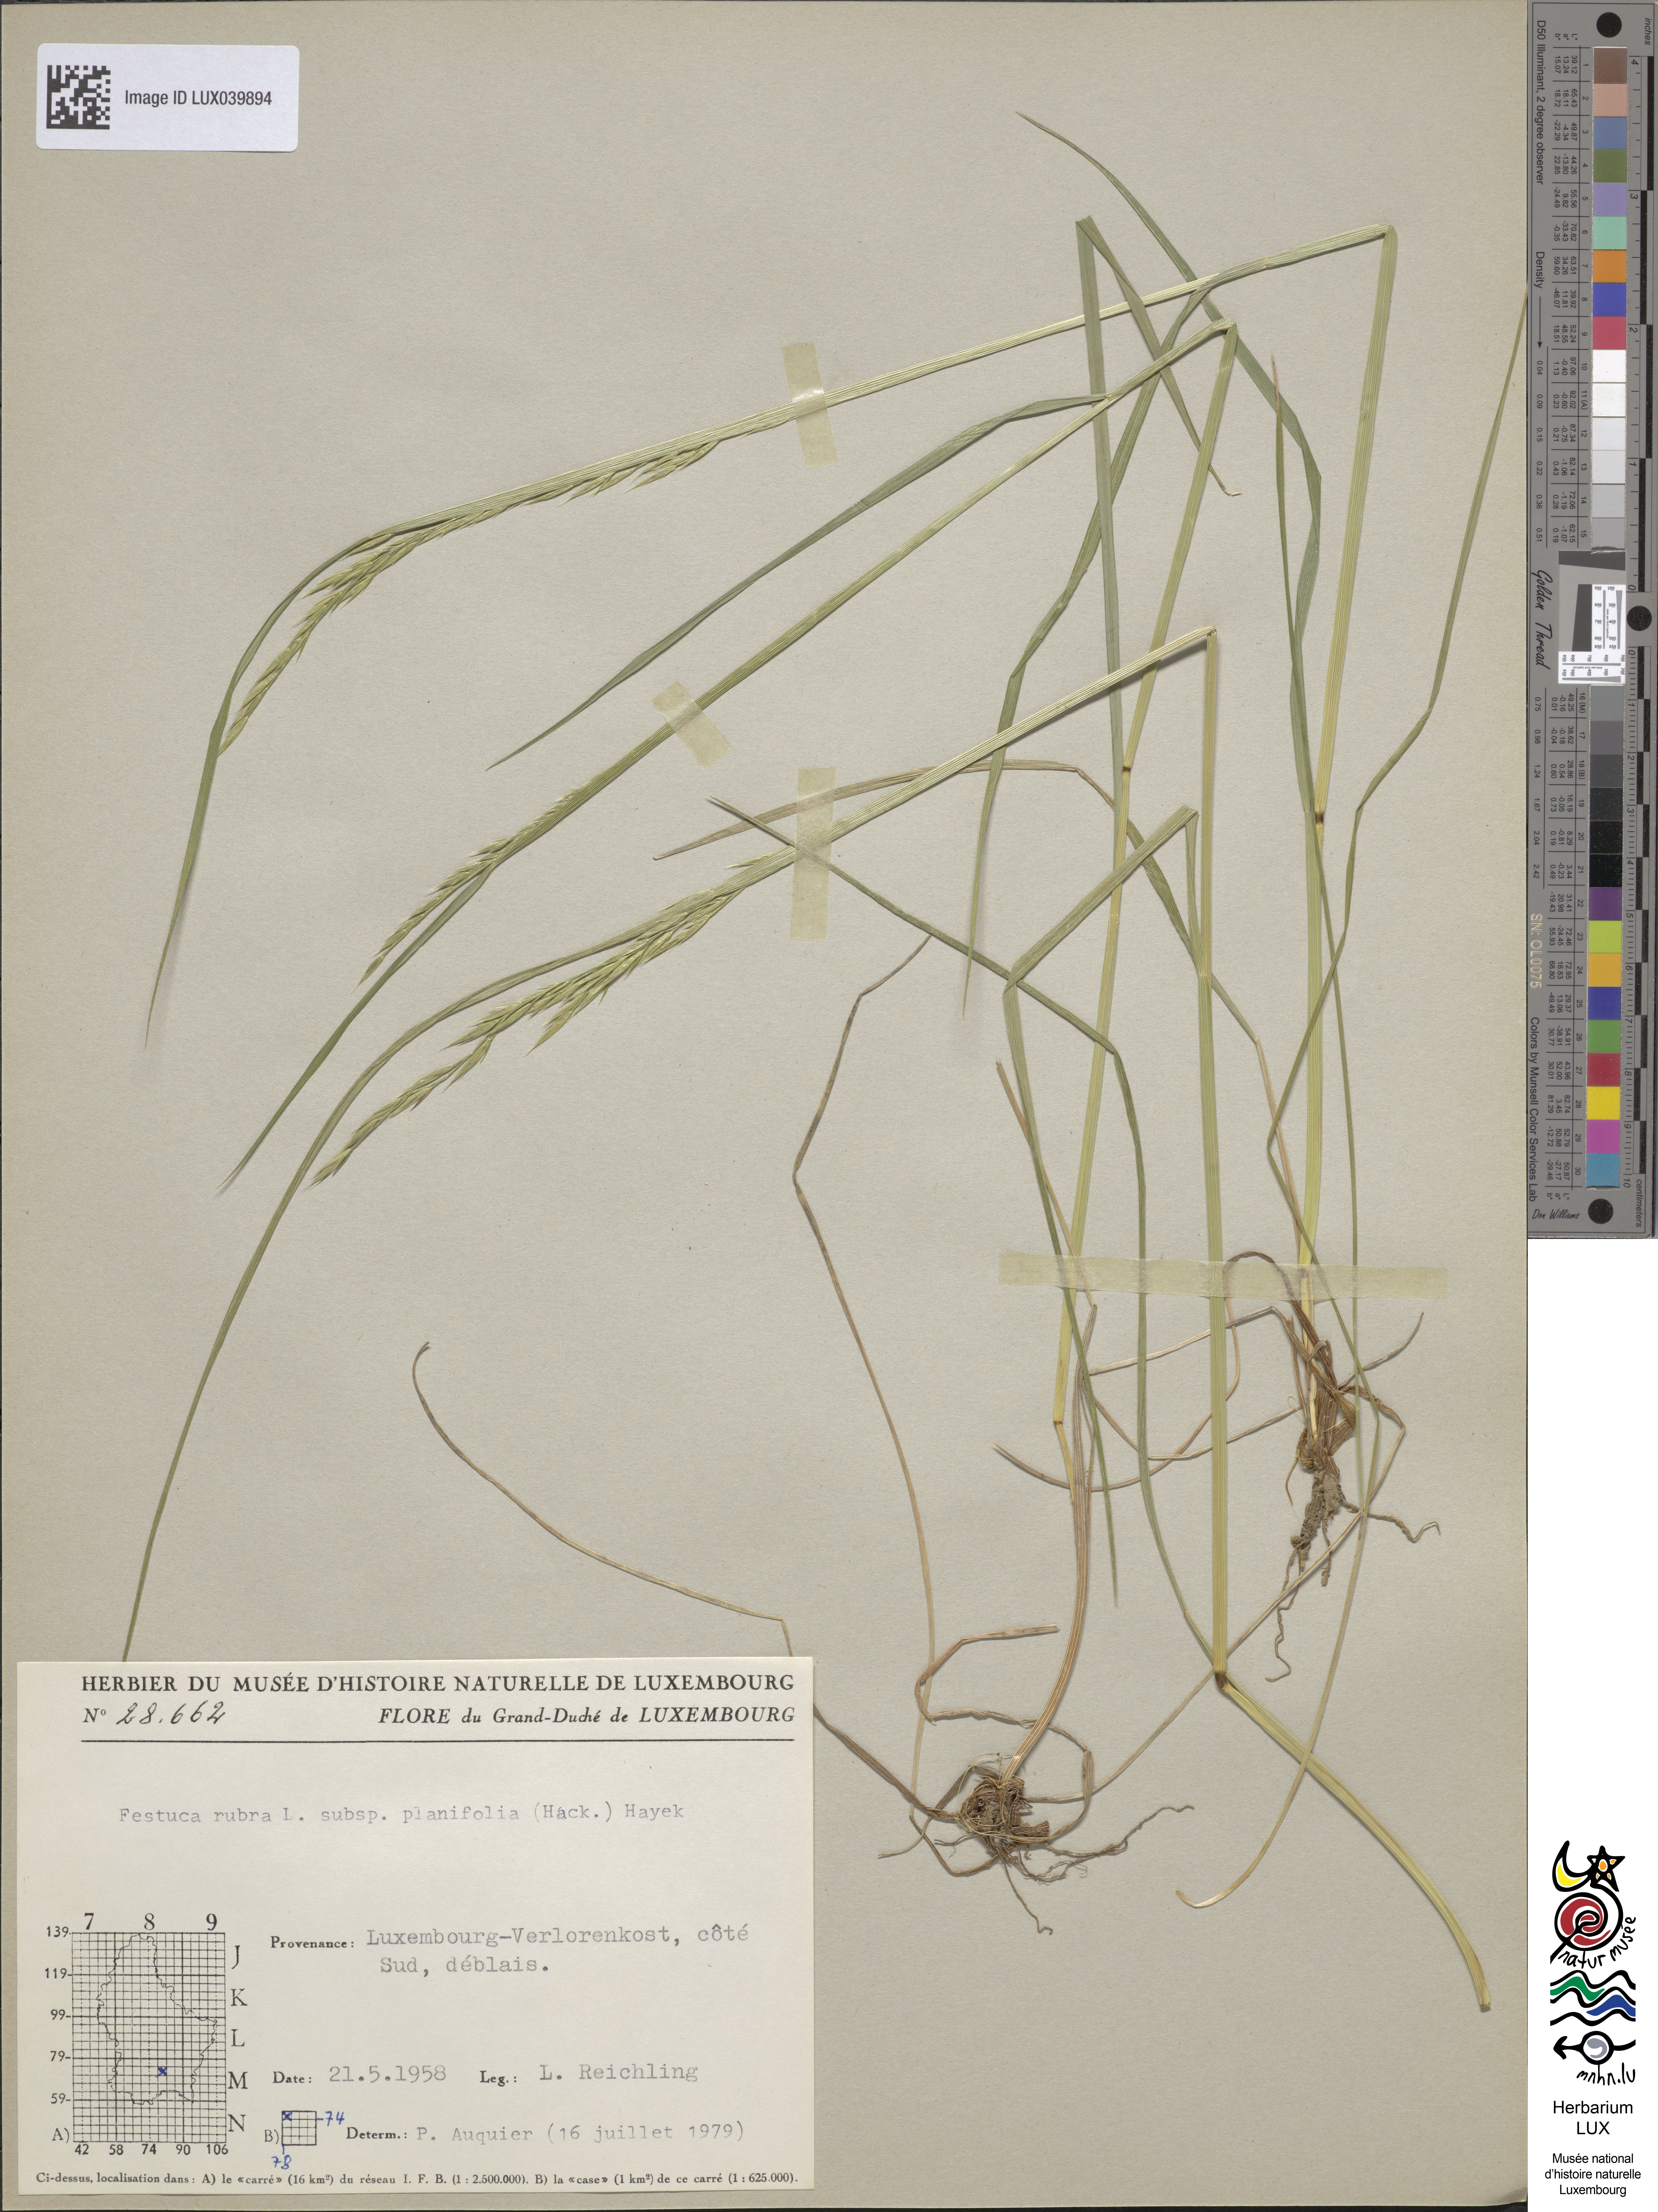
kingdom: Plantae
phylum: Tracheophyta
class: Liliopsida
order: Poales
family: Poaceae
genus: Festuca
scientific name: Festuca
